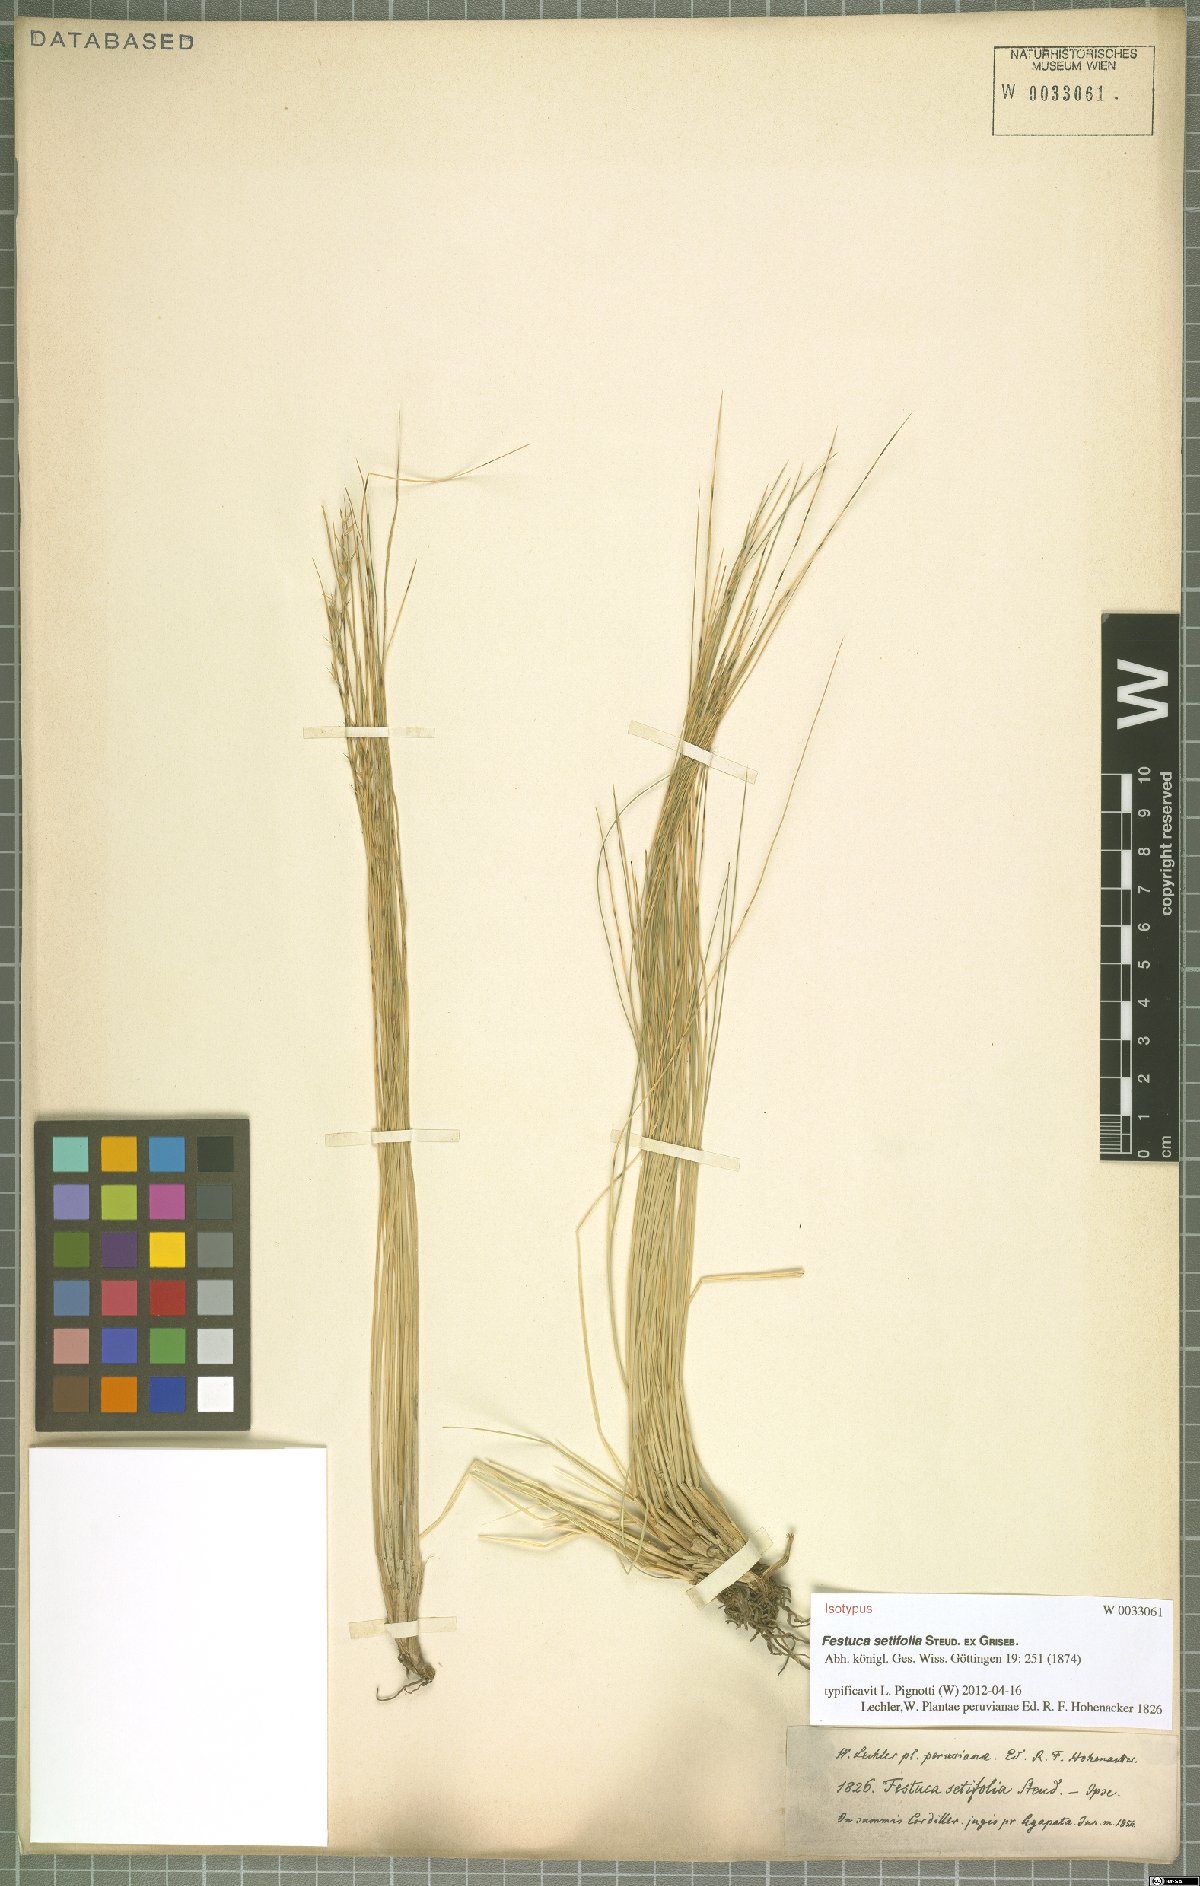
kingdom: Plantae
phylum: Tracheophyta
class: Liliopsida
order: Poales
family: Poaceae
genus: Festuca
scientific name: Festuca setifolia
